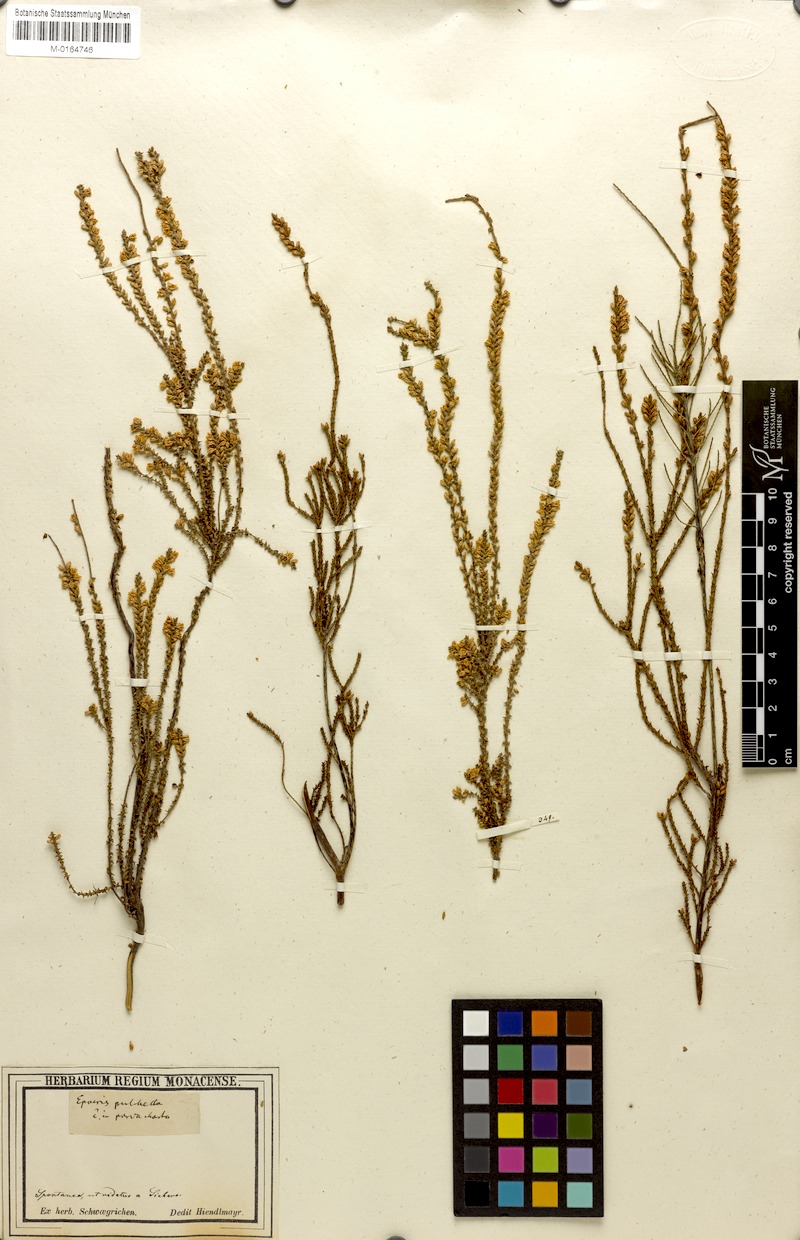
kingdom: Plantae
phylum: Tracheophyta
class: Magnoliopsida
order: Ericales
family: Ericaceae
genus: Epacris
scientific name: Epacris pulchella
